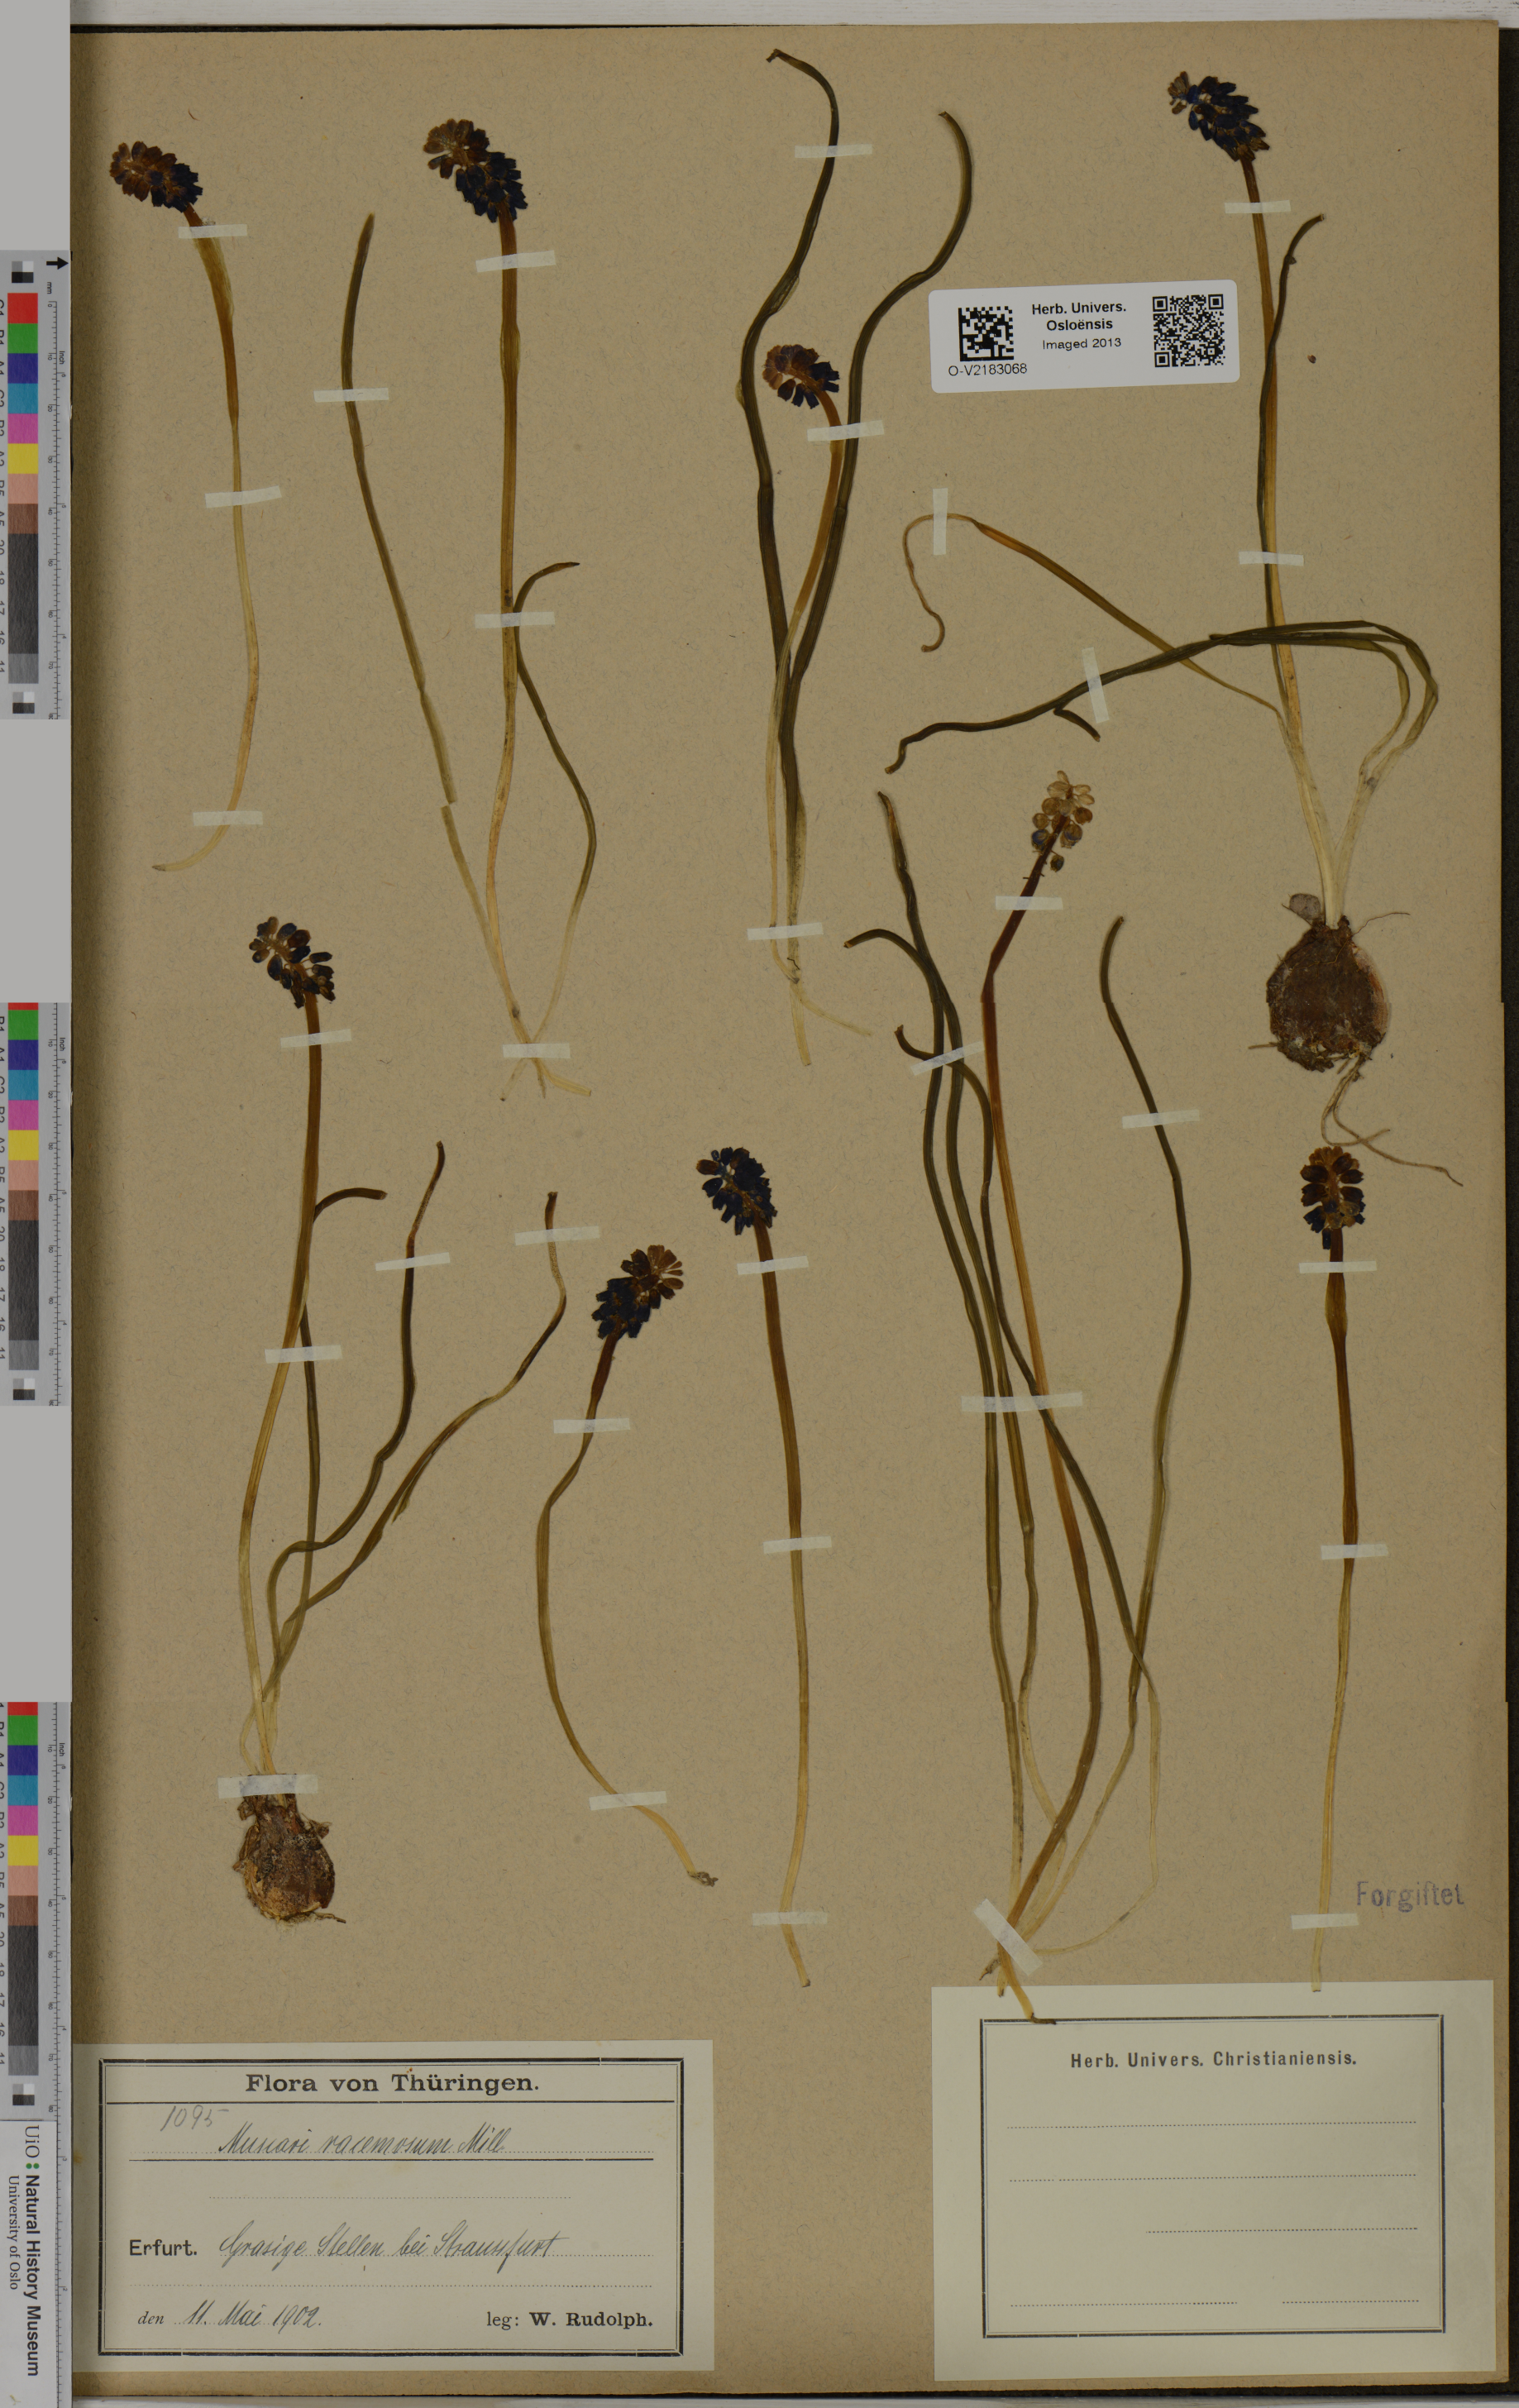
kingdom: Plantae
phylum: Tracheophyta
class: Liliopsida
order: Asparagales
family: Asparagaceae
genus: Muscari
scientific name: Muscari neglectum
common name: Grape-hyacinth
